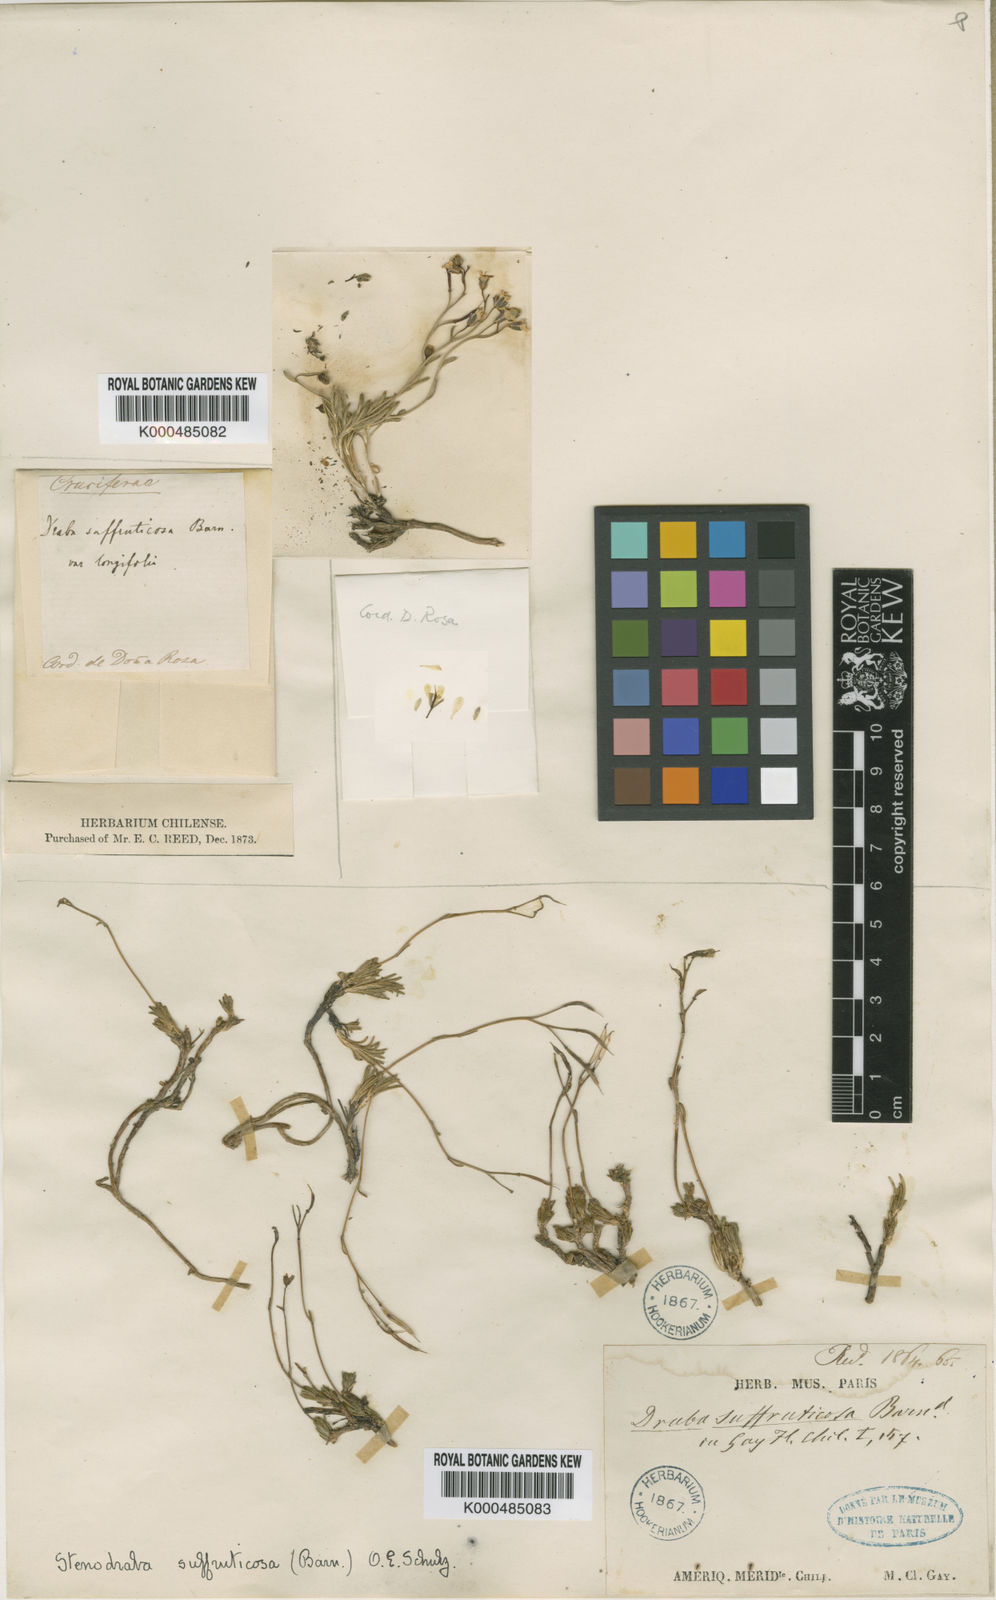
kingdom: Plantae
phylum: Tracheophyta
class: Magnoliopsida
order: Brassicales
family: Brassicaceae
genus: Weberbauera
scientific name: Weberbauera
